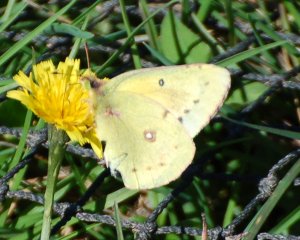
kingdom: Animalia
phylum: Arthropoda
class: Insecta
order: Lepidoptera
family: Pieridae
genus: Colias
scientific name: Colias philodice
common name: Clouded Sulphur
